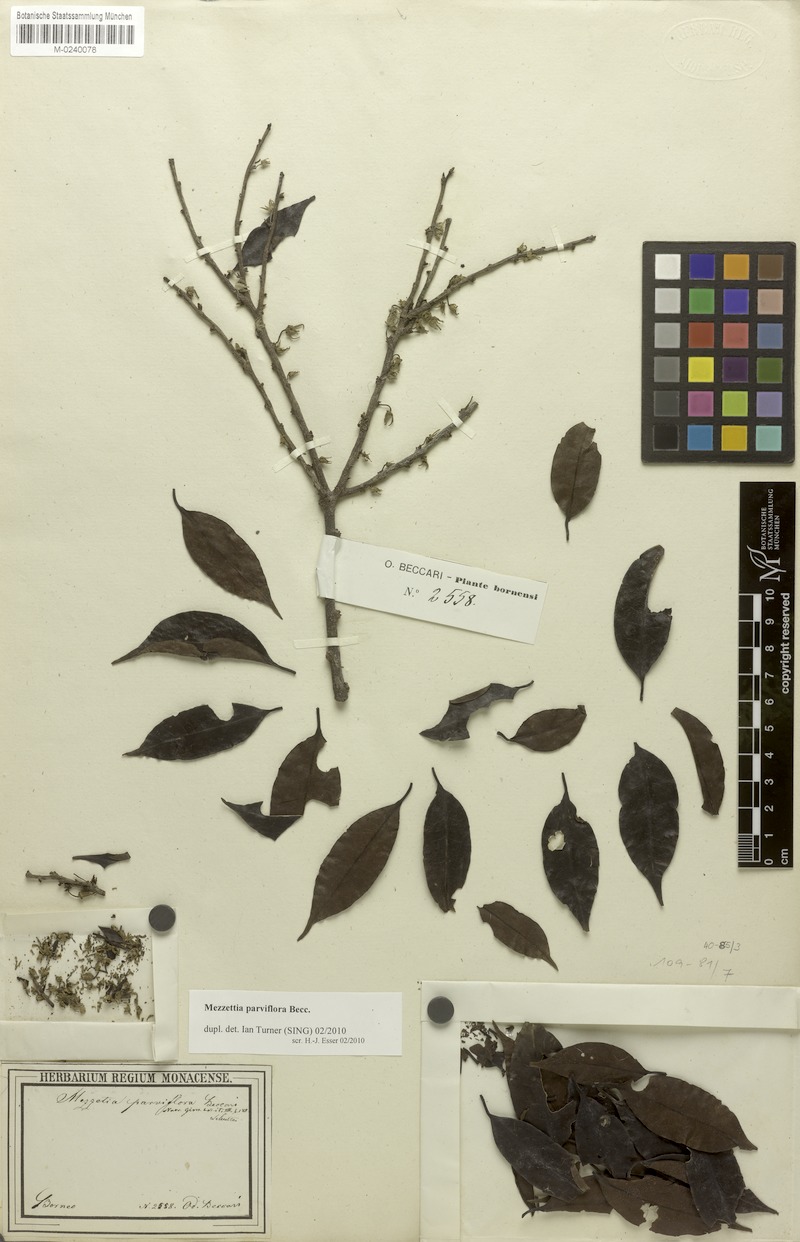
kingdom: Plantae
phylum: Tracheophyta
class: Magnoliopsida
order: Magnoliales
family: Annonaceae
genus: Mezzettia
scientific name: Mezzettia parviflora
